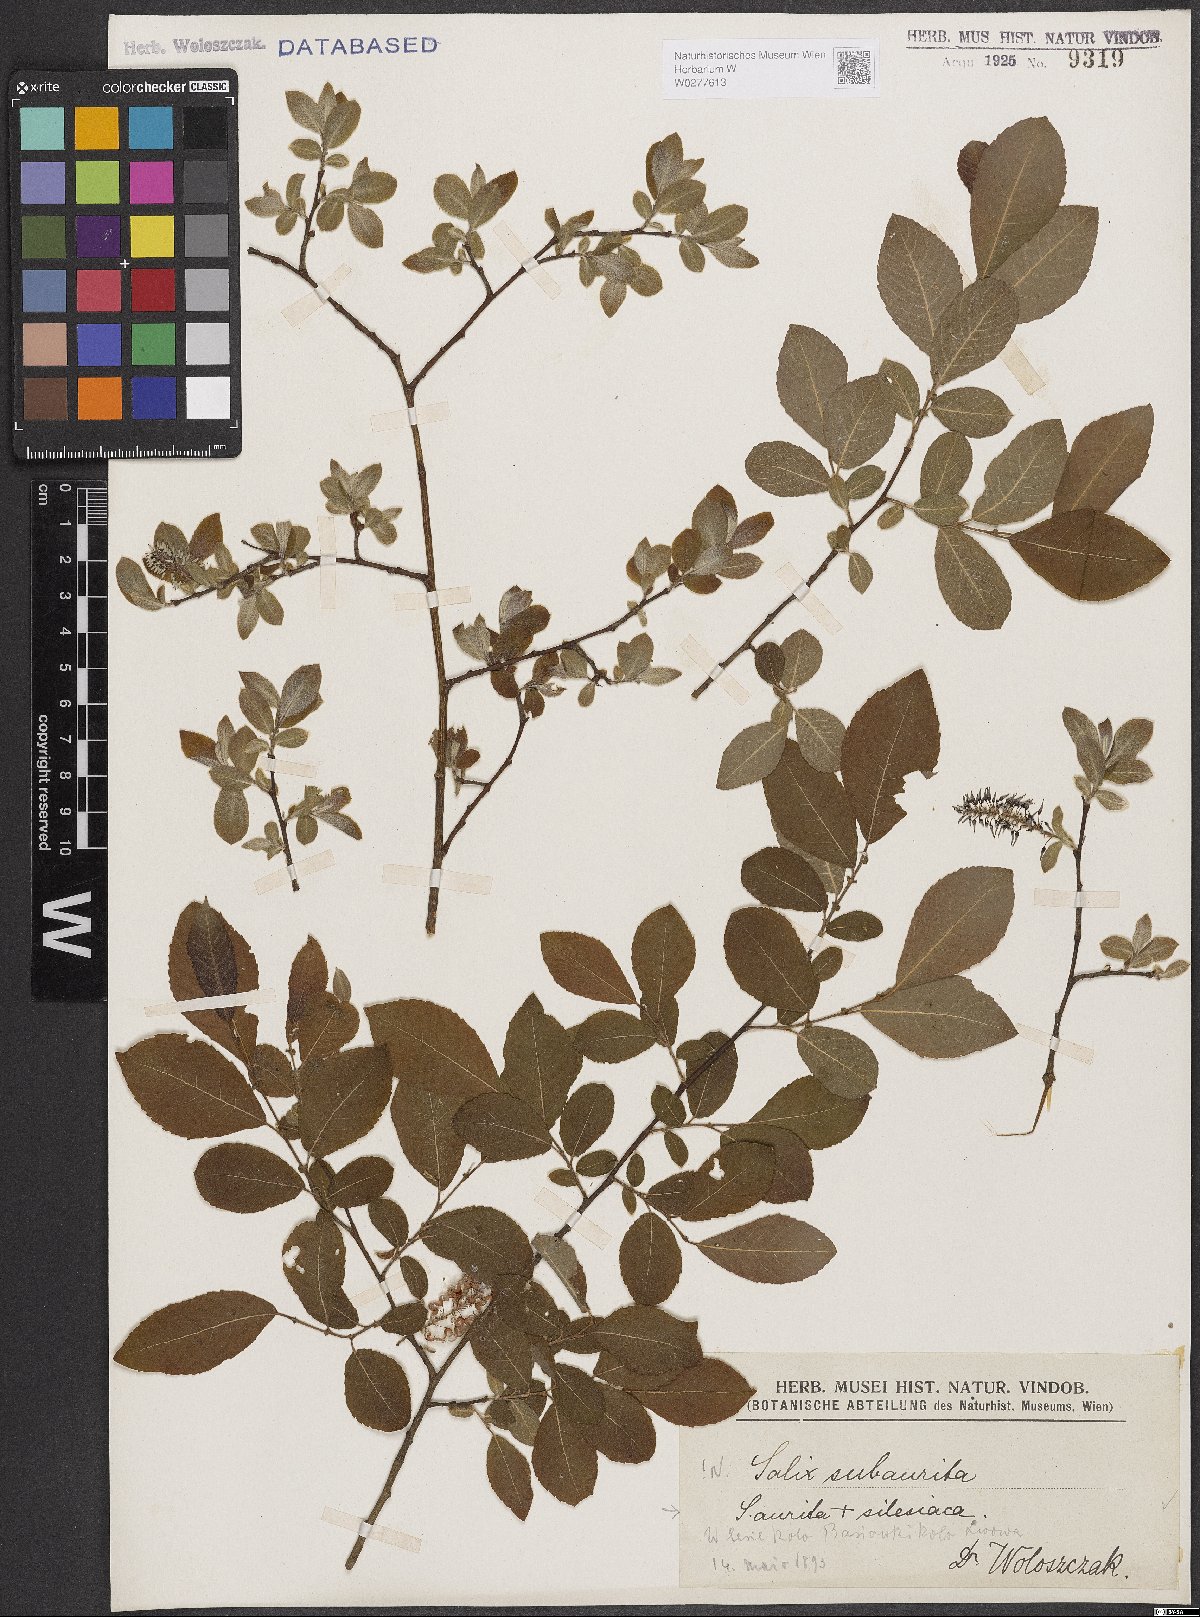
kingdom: Plantae
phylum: Tracheophyta
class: Magnoliopsida
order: Malpighiales
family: Salicaceae
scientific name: Salicaceae
